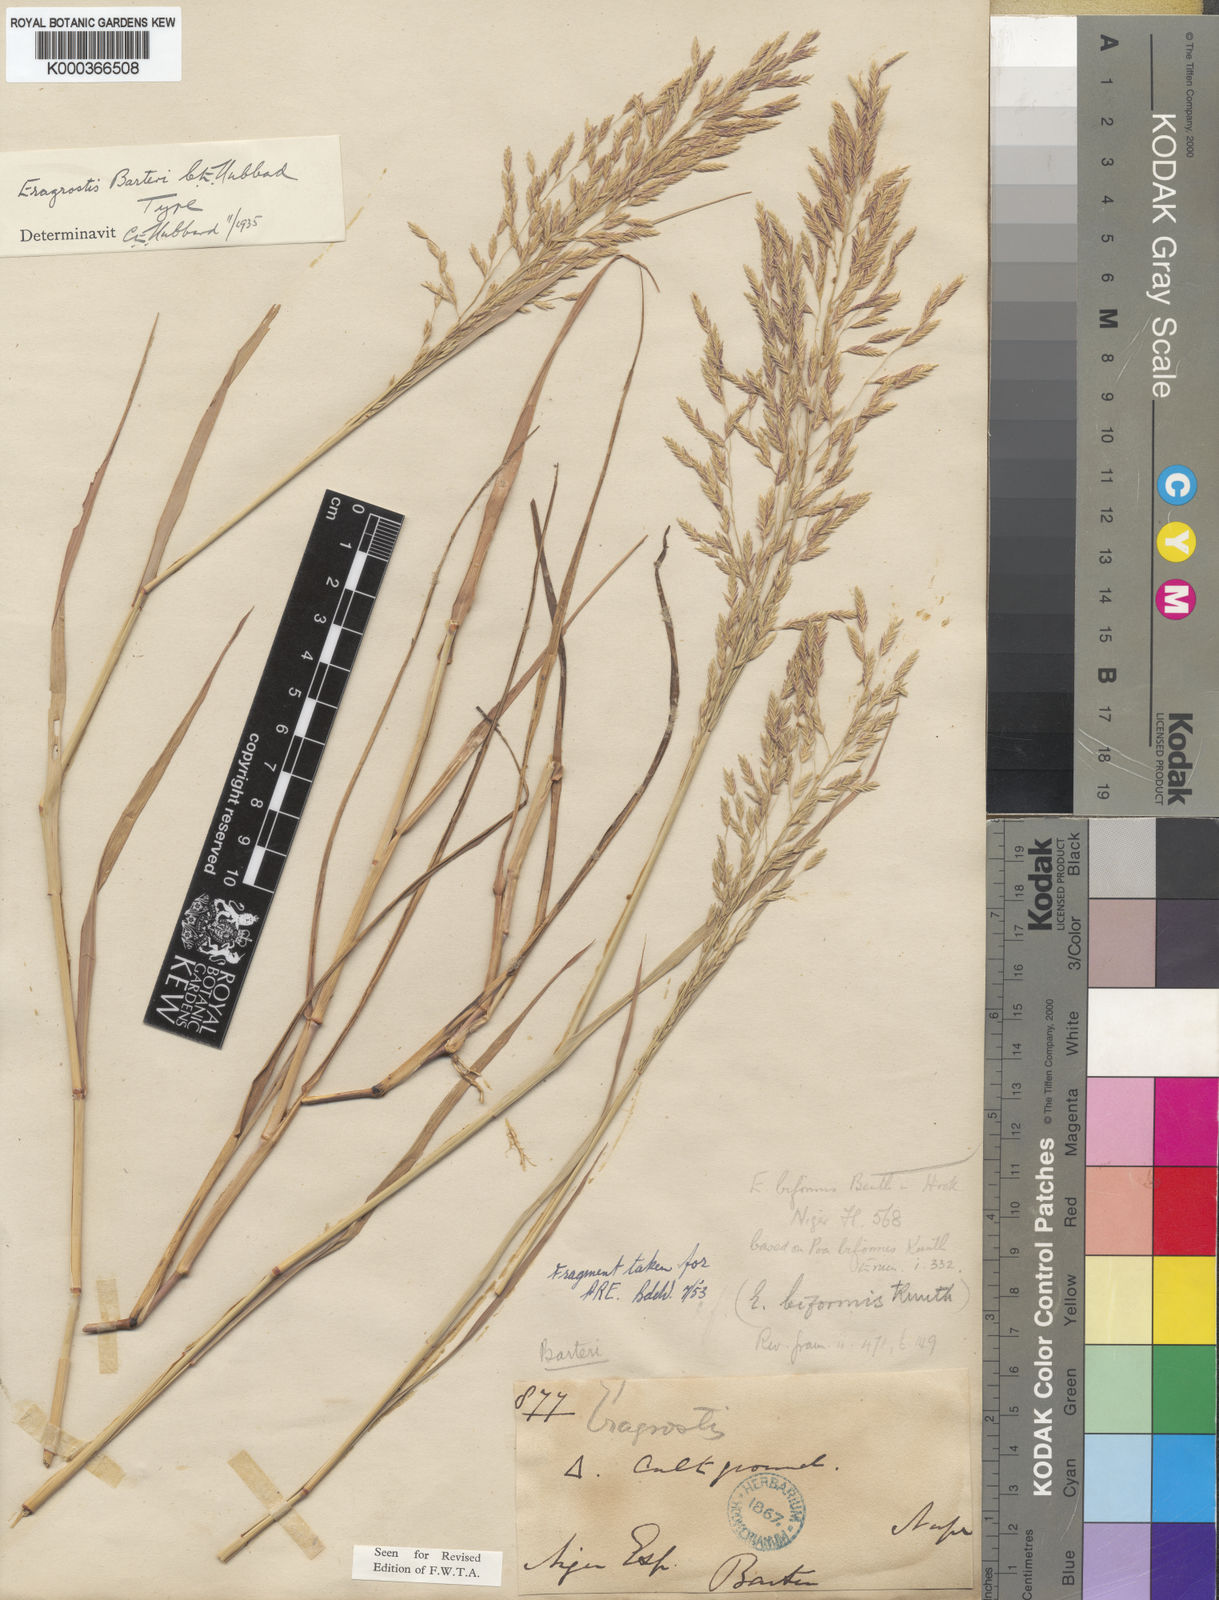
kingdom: Plantae
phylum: Tracheophyta
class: Liliopsida
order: Poales
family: Poaceae
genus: Eragrostis
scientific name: Eragrostis barteri
